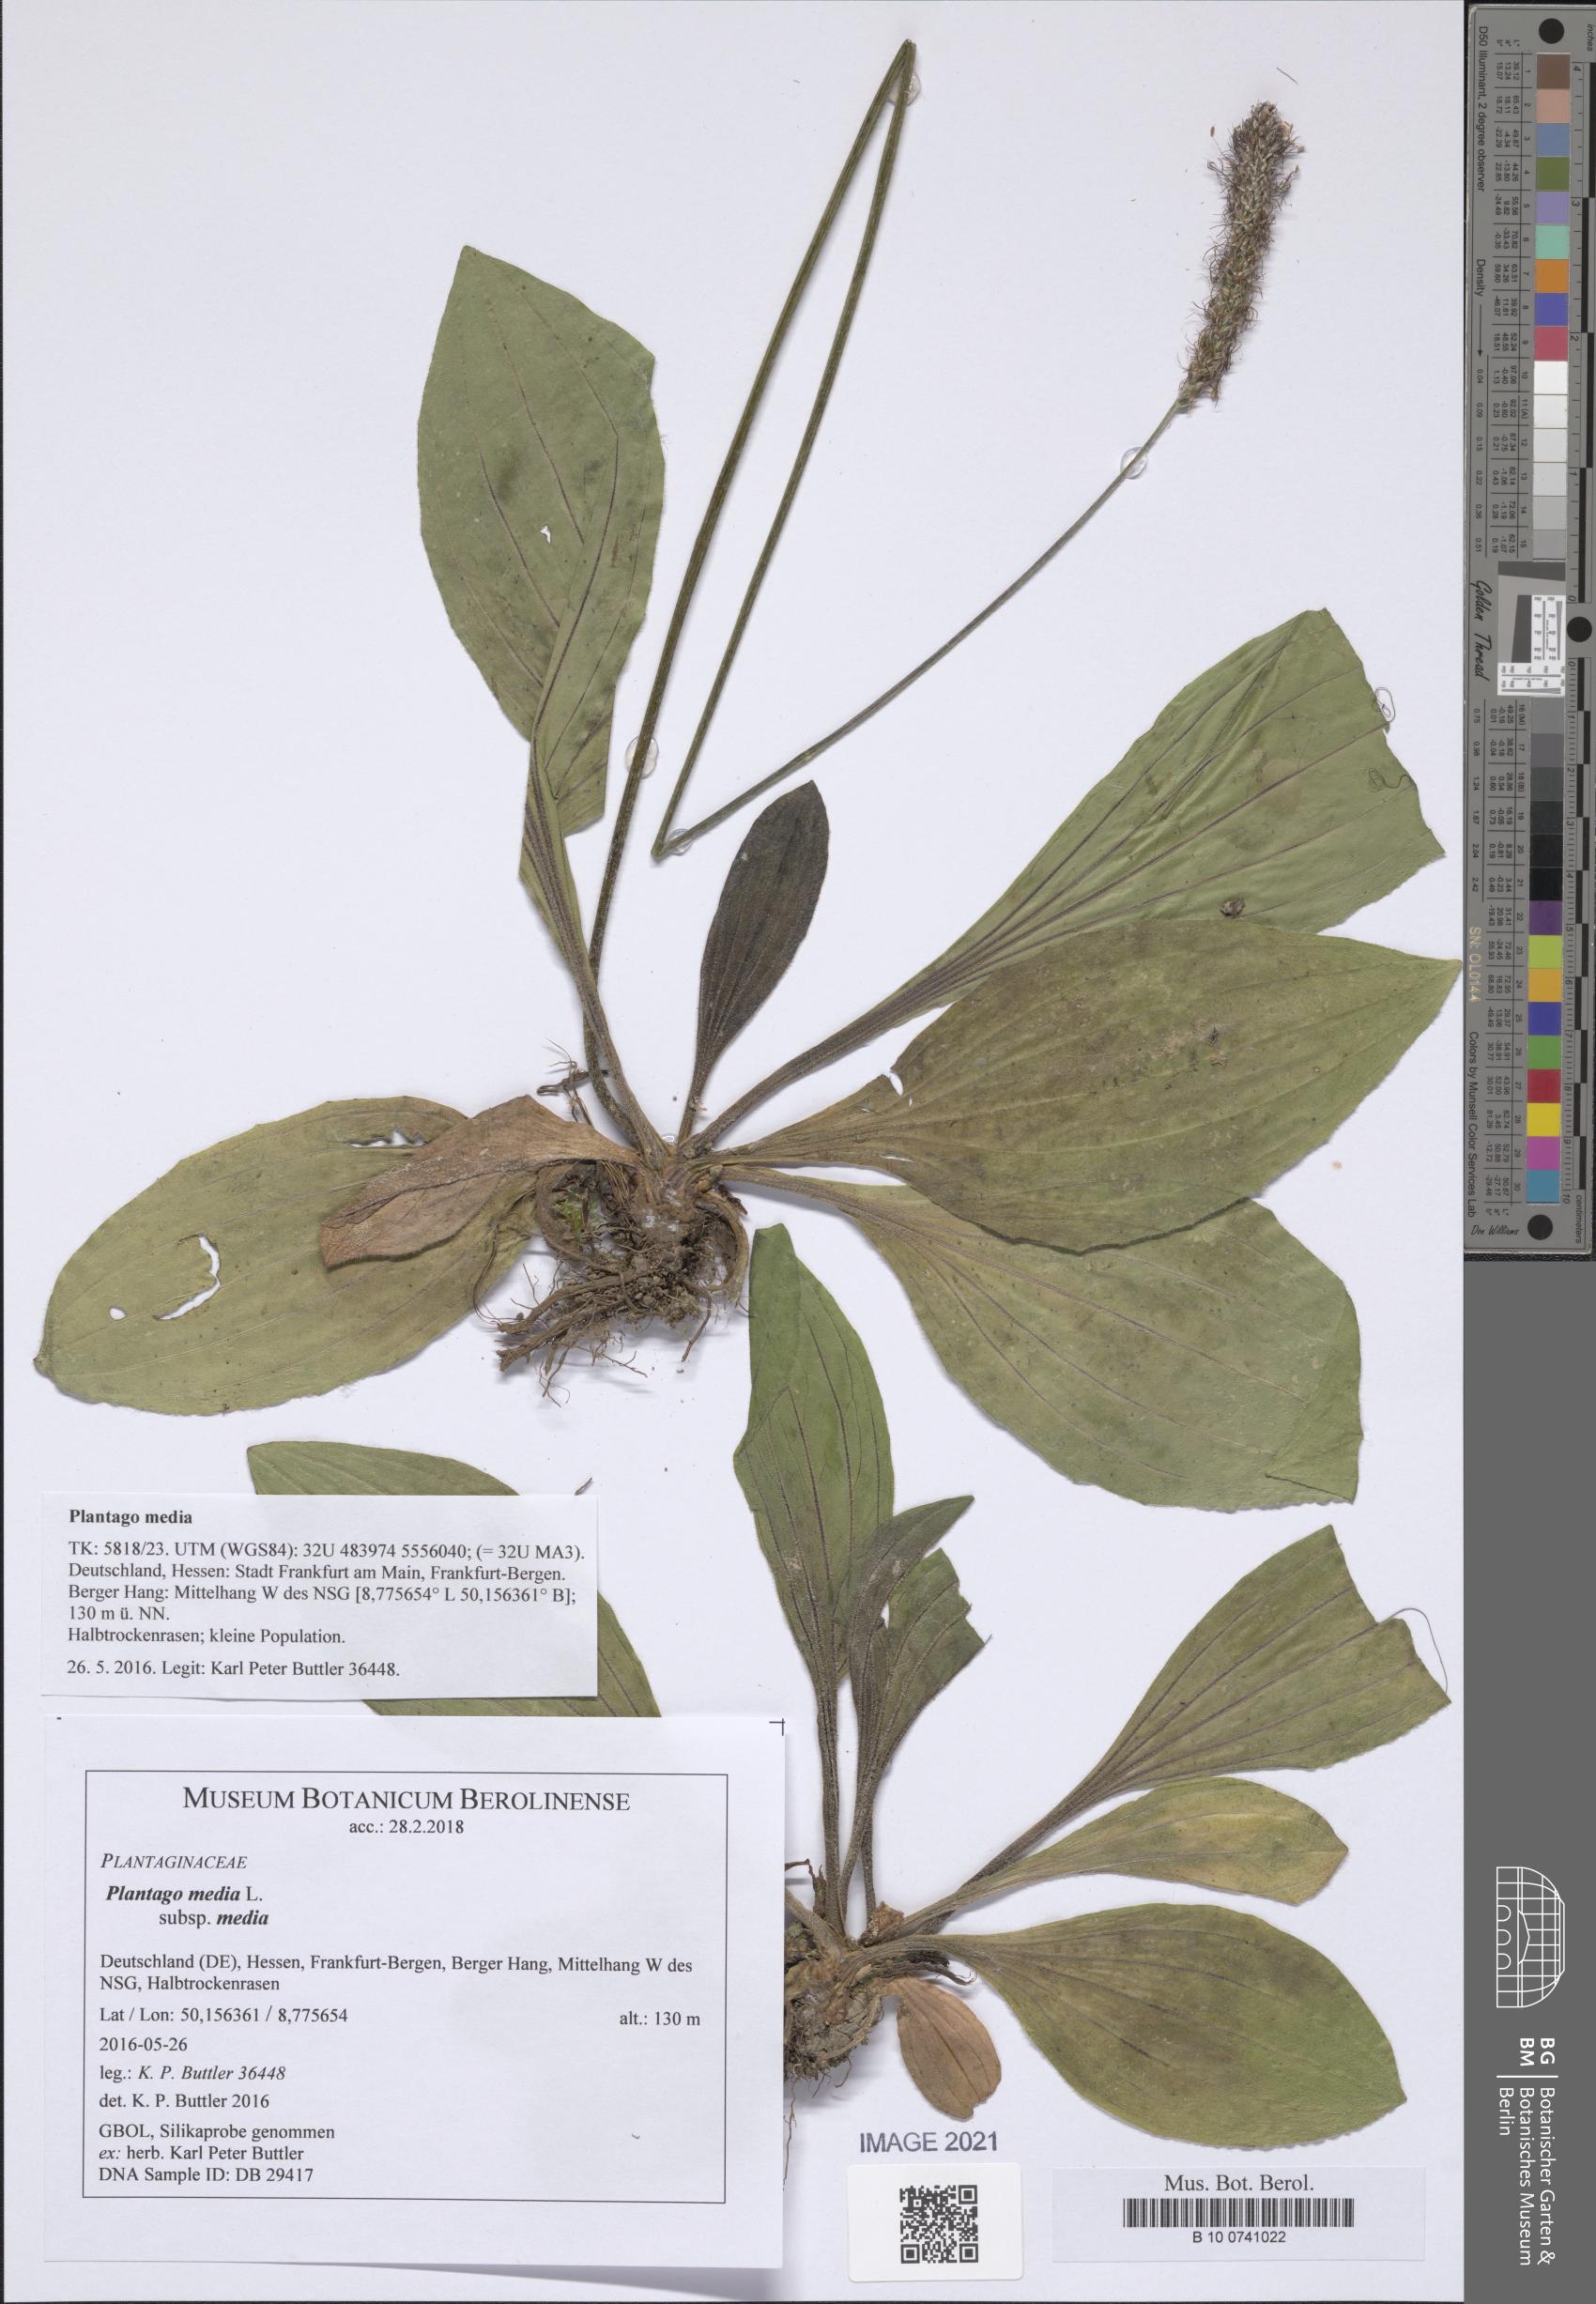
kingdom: Plantae
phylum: Tracheophyta
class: Magnoliopsida
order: Lamiales
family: Plantaginaceae
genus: Plantago
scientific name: Plantago media
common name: Hoary plantain
